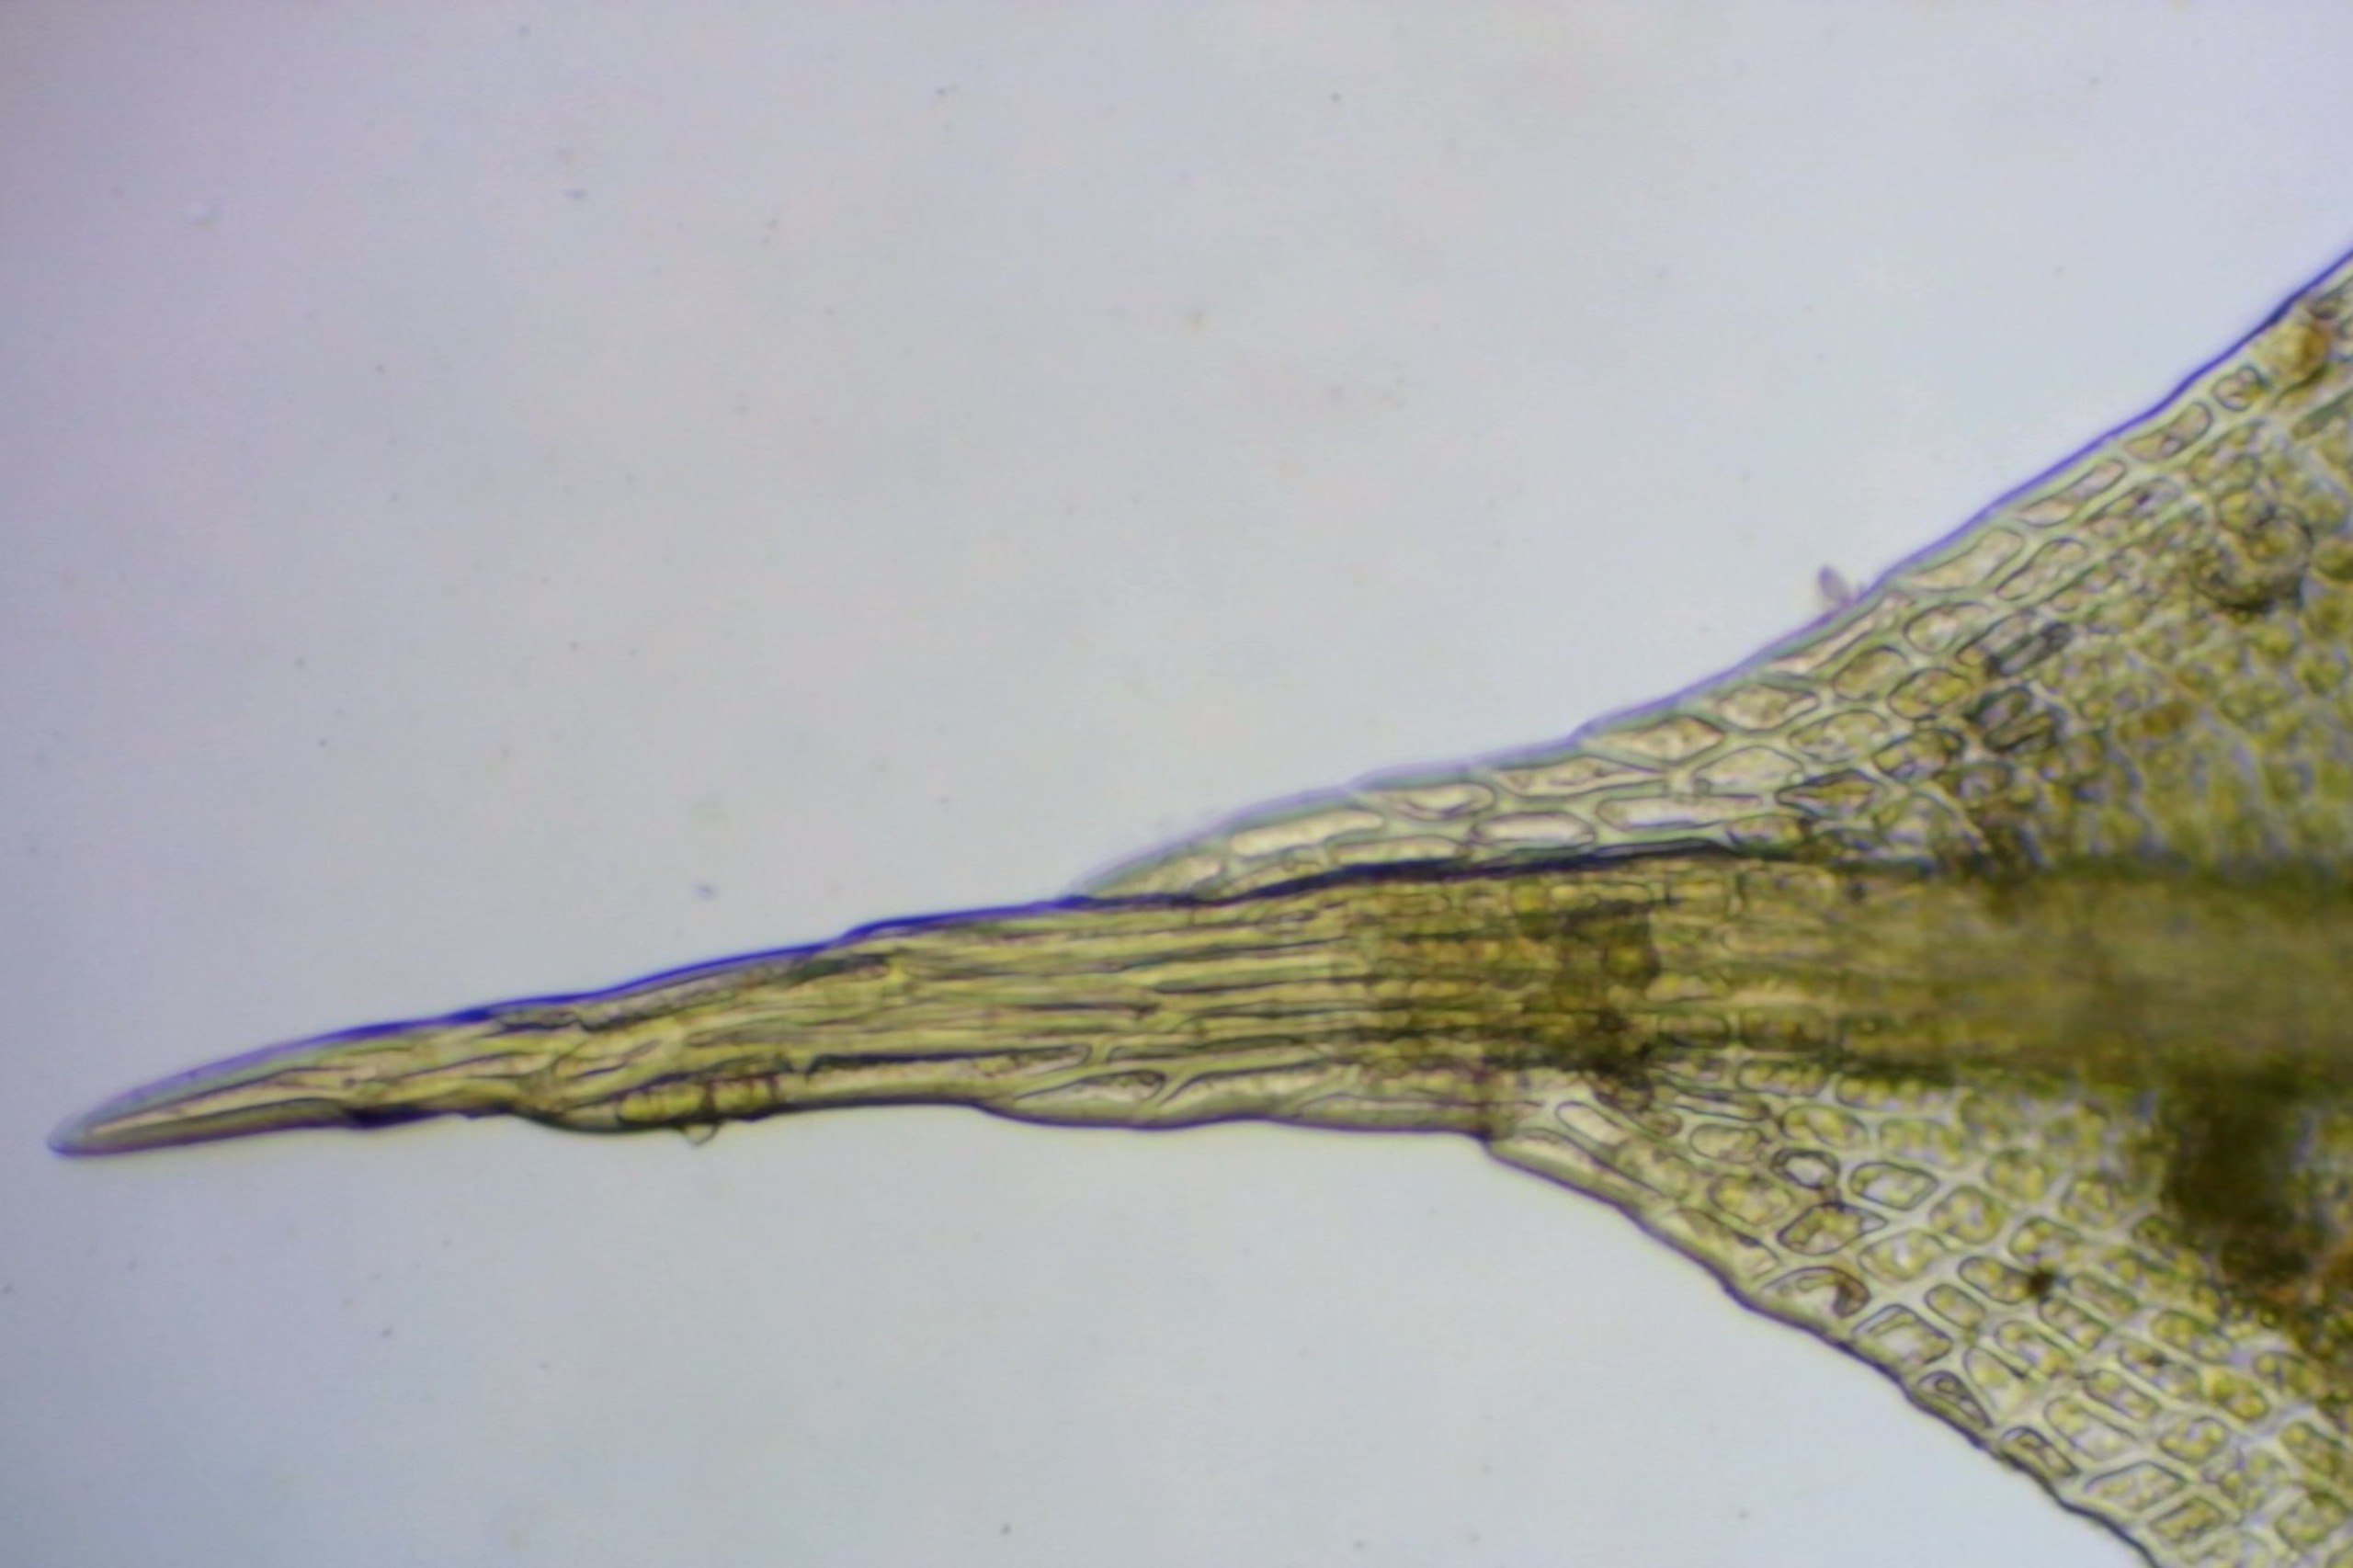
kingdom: Plantae
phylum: Bryophyta
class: Bryopsida
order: Pottiales
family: Pottiaceae
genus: Tortula
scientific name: Tortula subulata
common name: Syl-snotand
